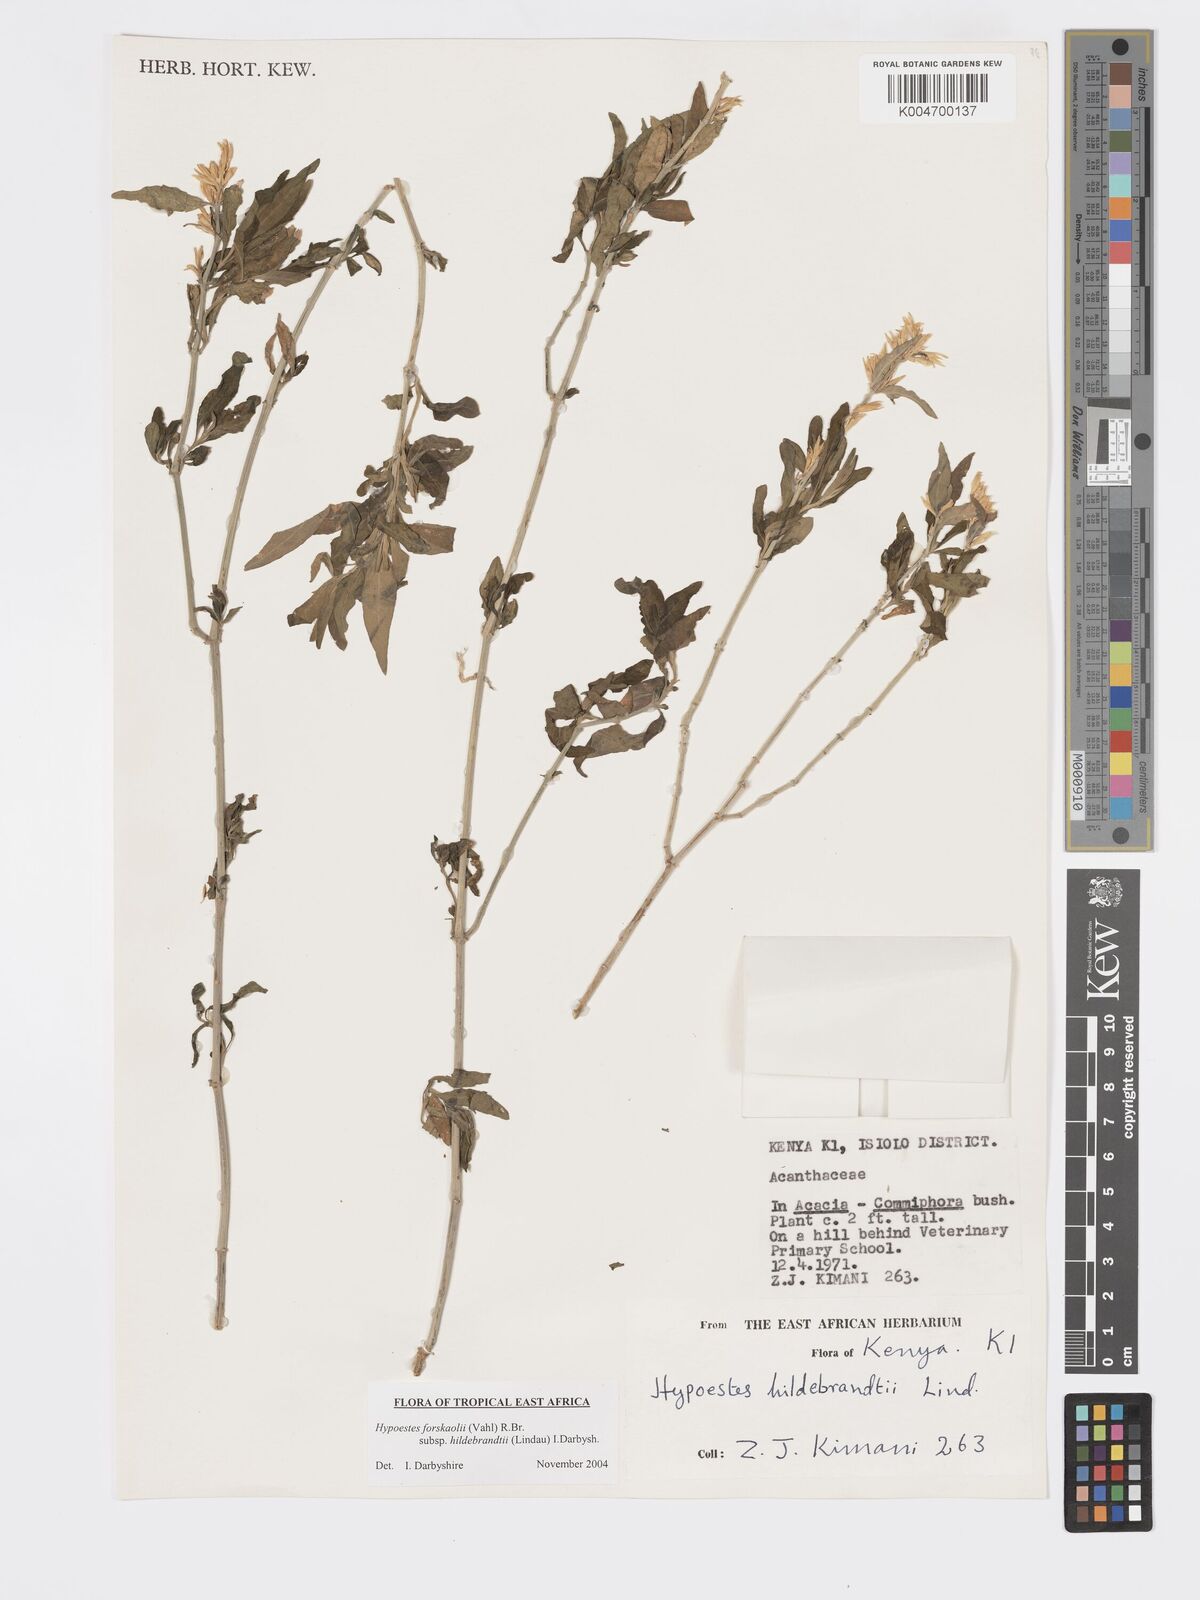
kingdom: Plantae
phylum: Tracheophyta
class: Magnoliopsida
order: Lamiales
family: Acanthaceae
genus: Hypoestes
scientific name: Hypoestes forskaolii
